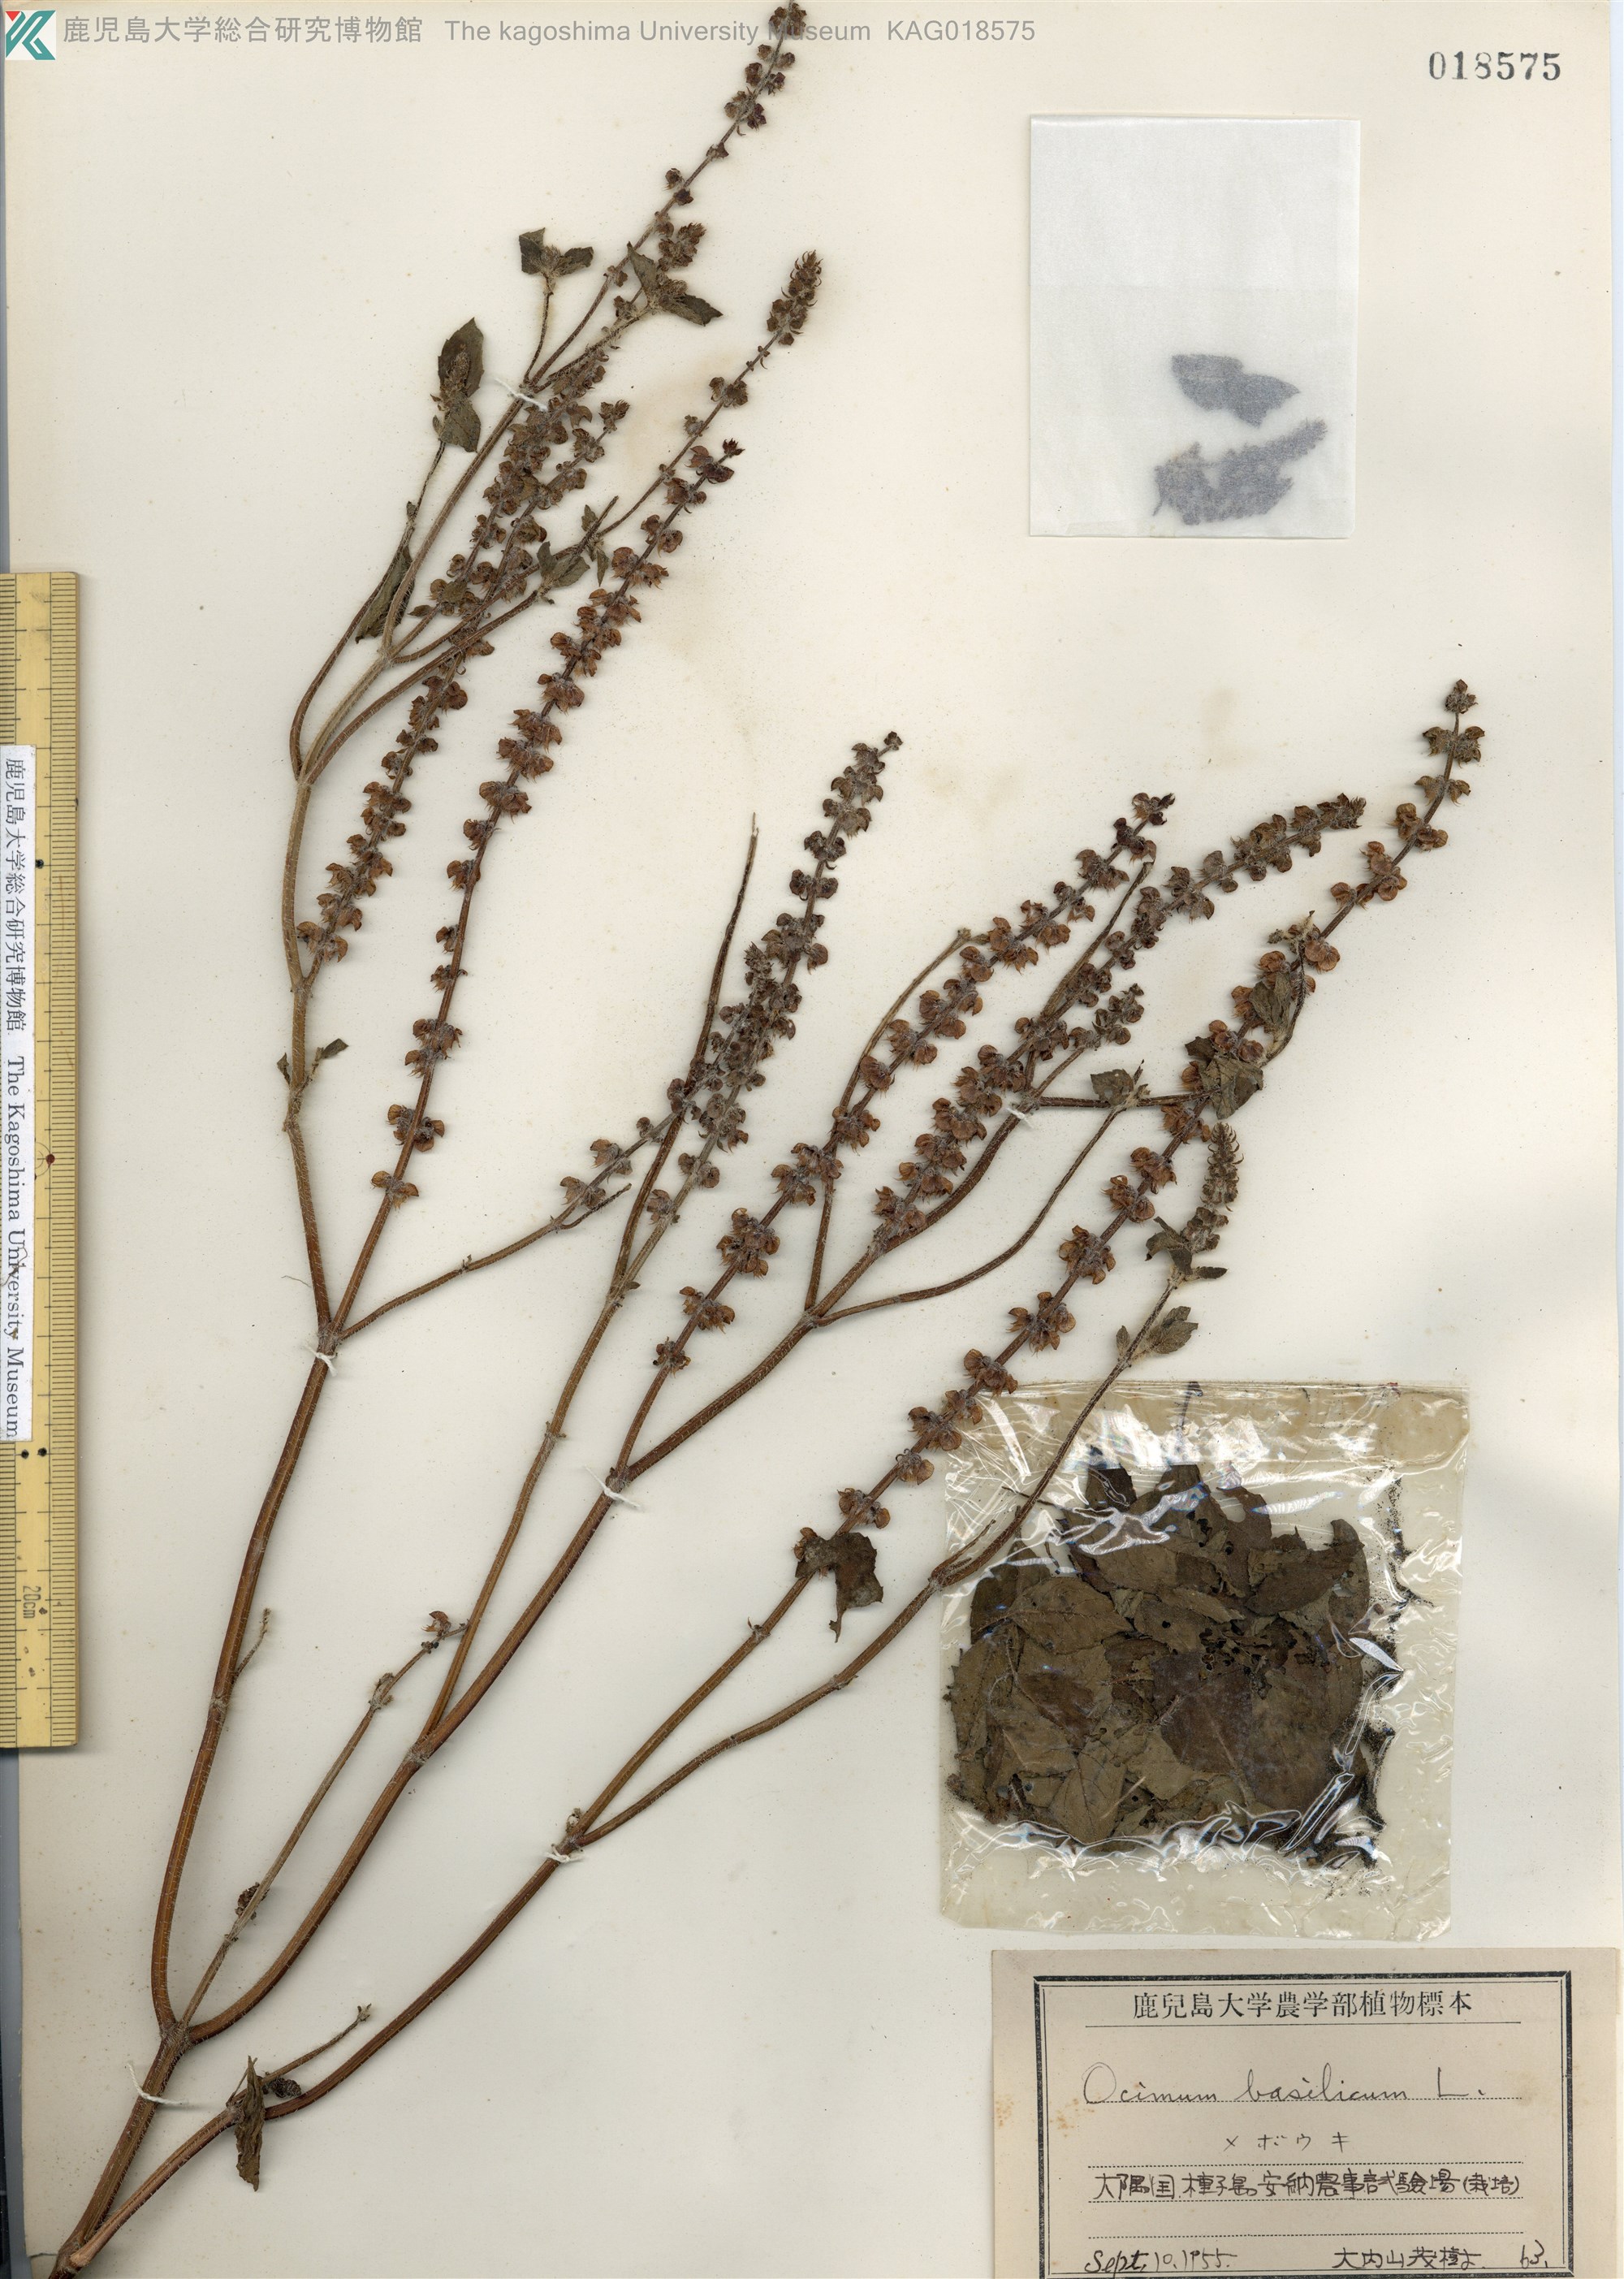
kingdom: Plantae
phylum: Tracheophyta
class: Magnoliopsida
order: Lamiales
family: Lamiaceae
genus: Ocimum
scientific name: Ocimum basilicum
